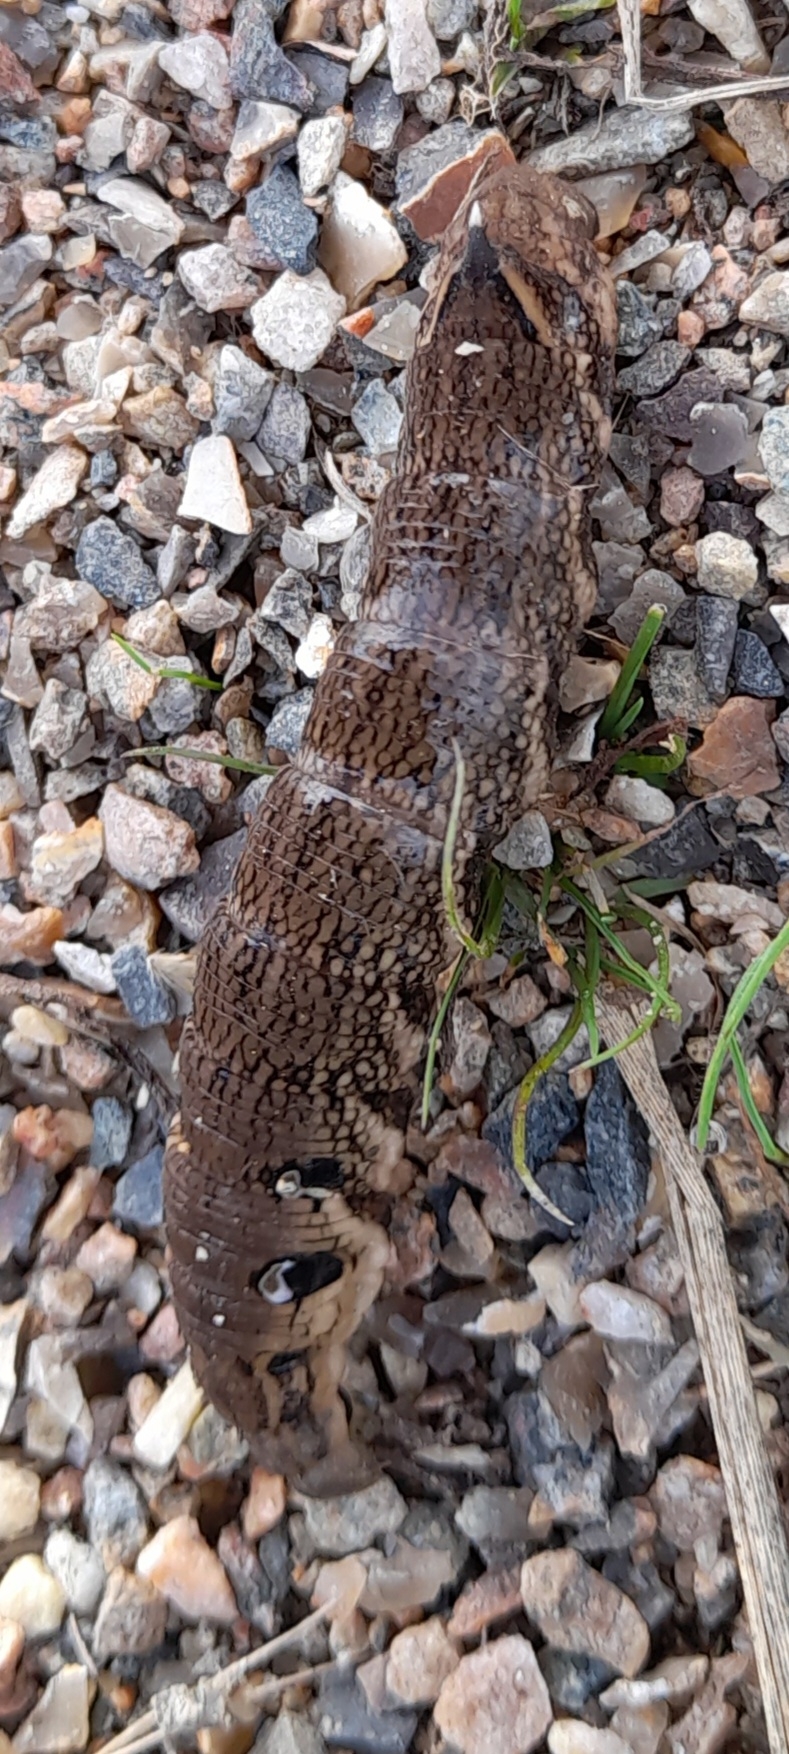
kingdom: Animalia
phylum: Arthropoda
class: Insecta
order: Lepidoptera
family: Sphingidae
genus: Deilephila
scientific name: Deilephila elpenor
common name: Dueurtsværmer
